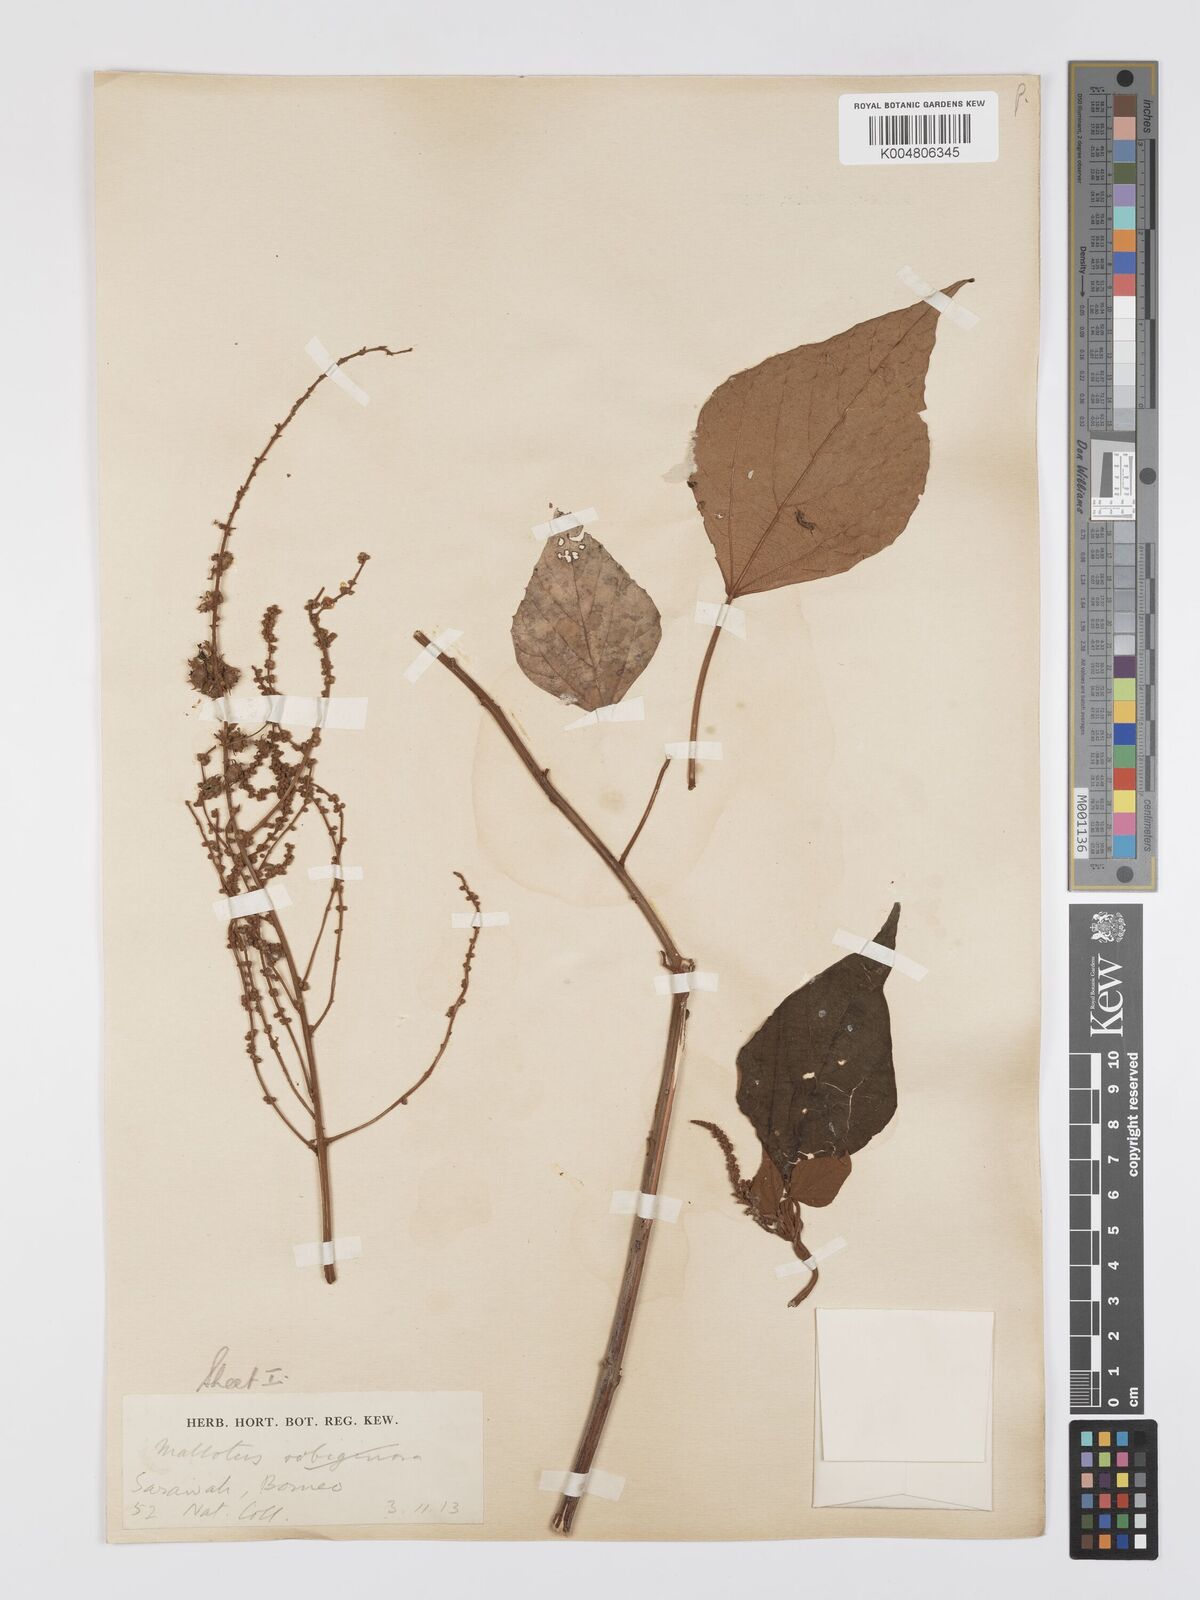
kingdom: Plantae
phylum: Tracheophyta
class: Magnoliopsida
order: Malpighiales
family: Euphorbiaceae
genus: Mallotus
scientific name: Mallotus paniculatus
